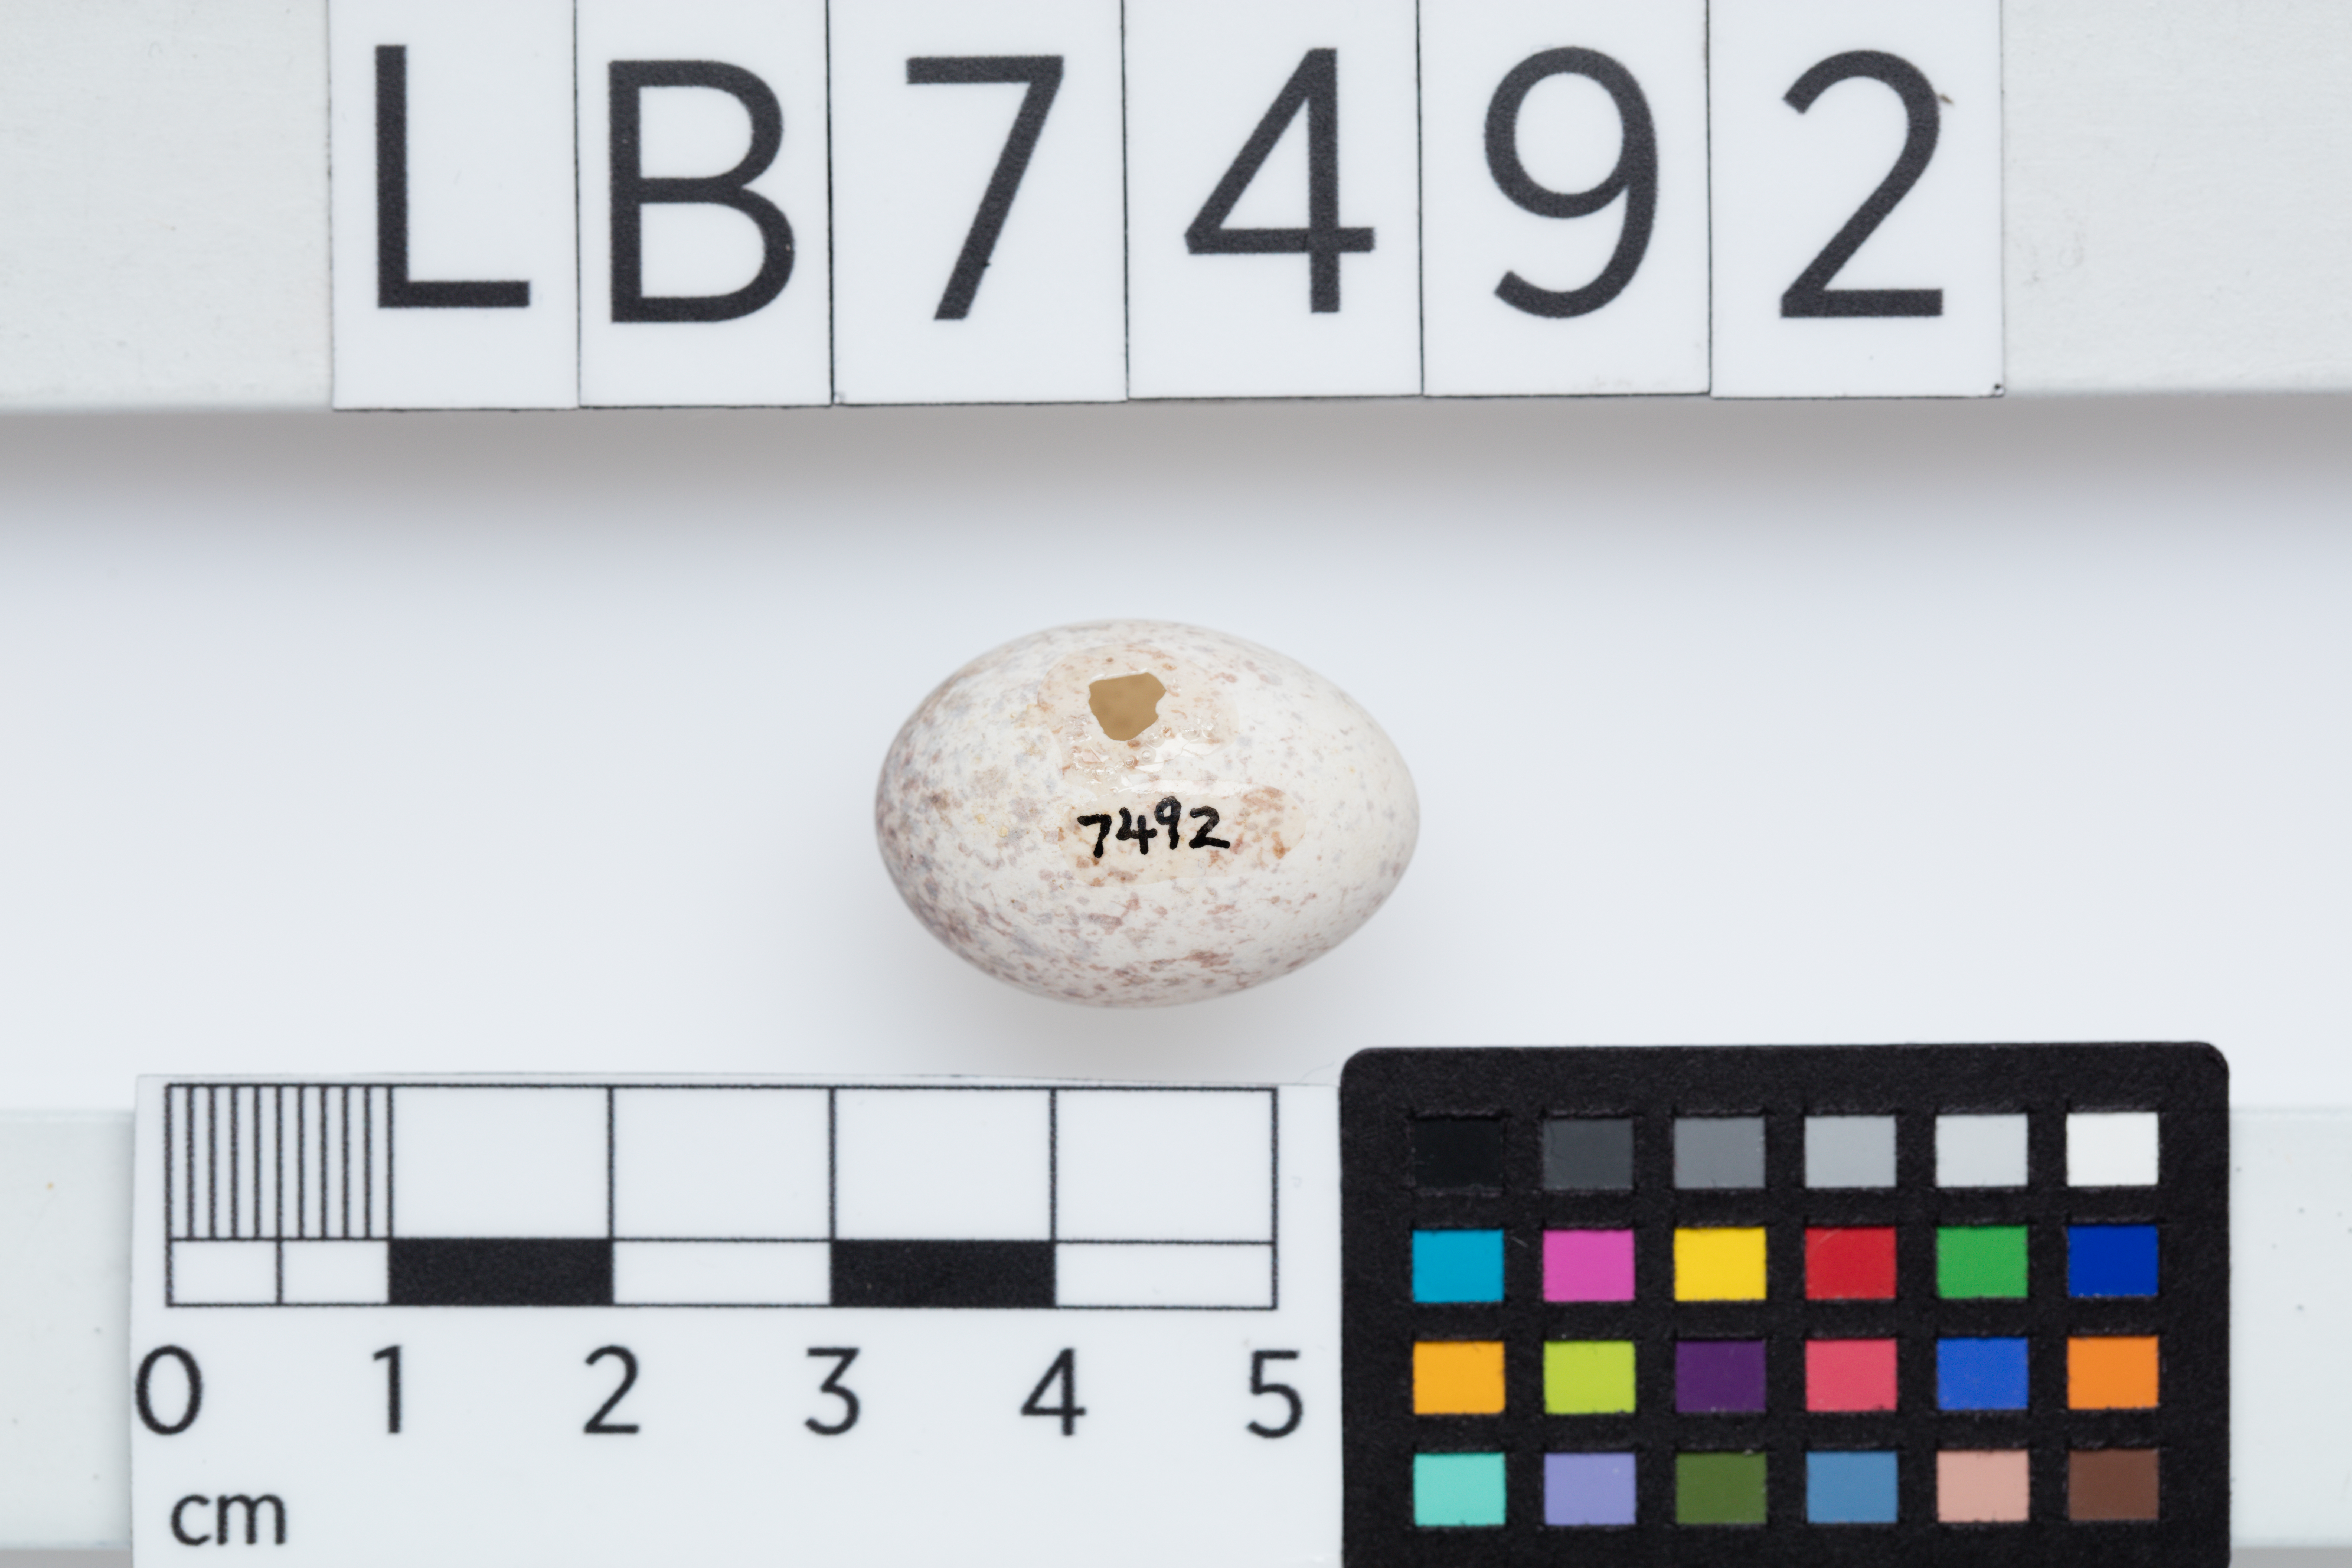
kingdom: Animalia
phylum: Chordata
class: Aves
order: Passeriformes
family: Acanthizidae
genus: Mohoua
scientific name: Mohoua ochrocephala
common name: Yellowhead
